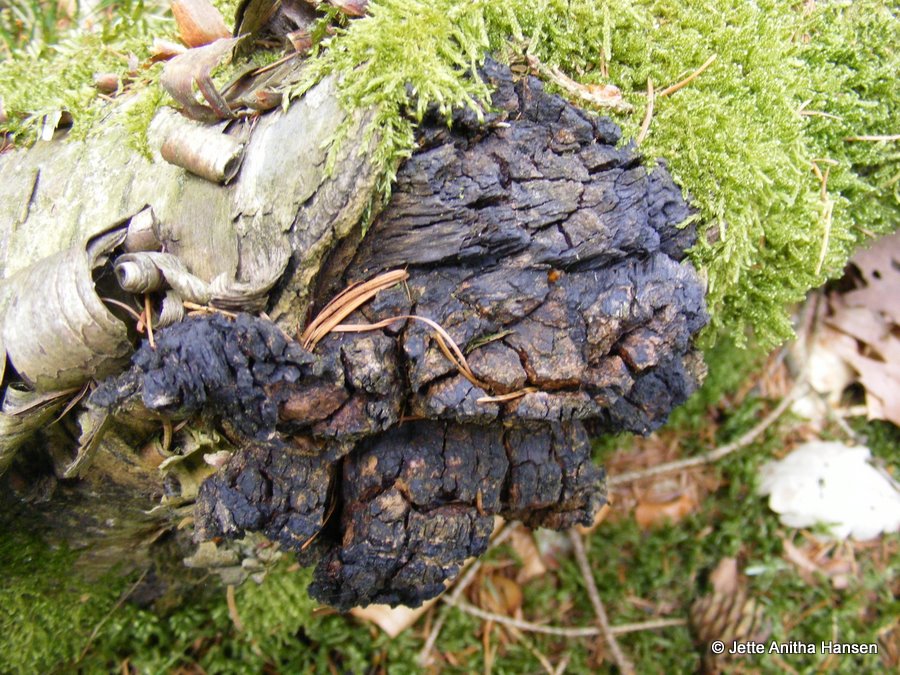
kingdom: Fungi
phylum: Basidiomycota
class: Agaricomycetes
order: Hymenochaetales
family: Hymenochaetaceae
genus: Inonotus
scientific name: Inonotus obliquus
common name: birke-spejlporesvamp
